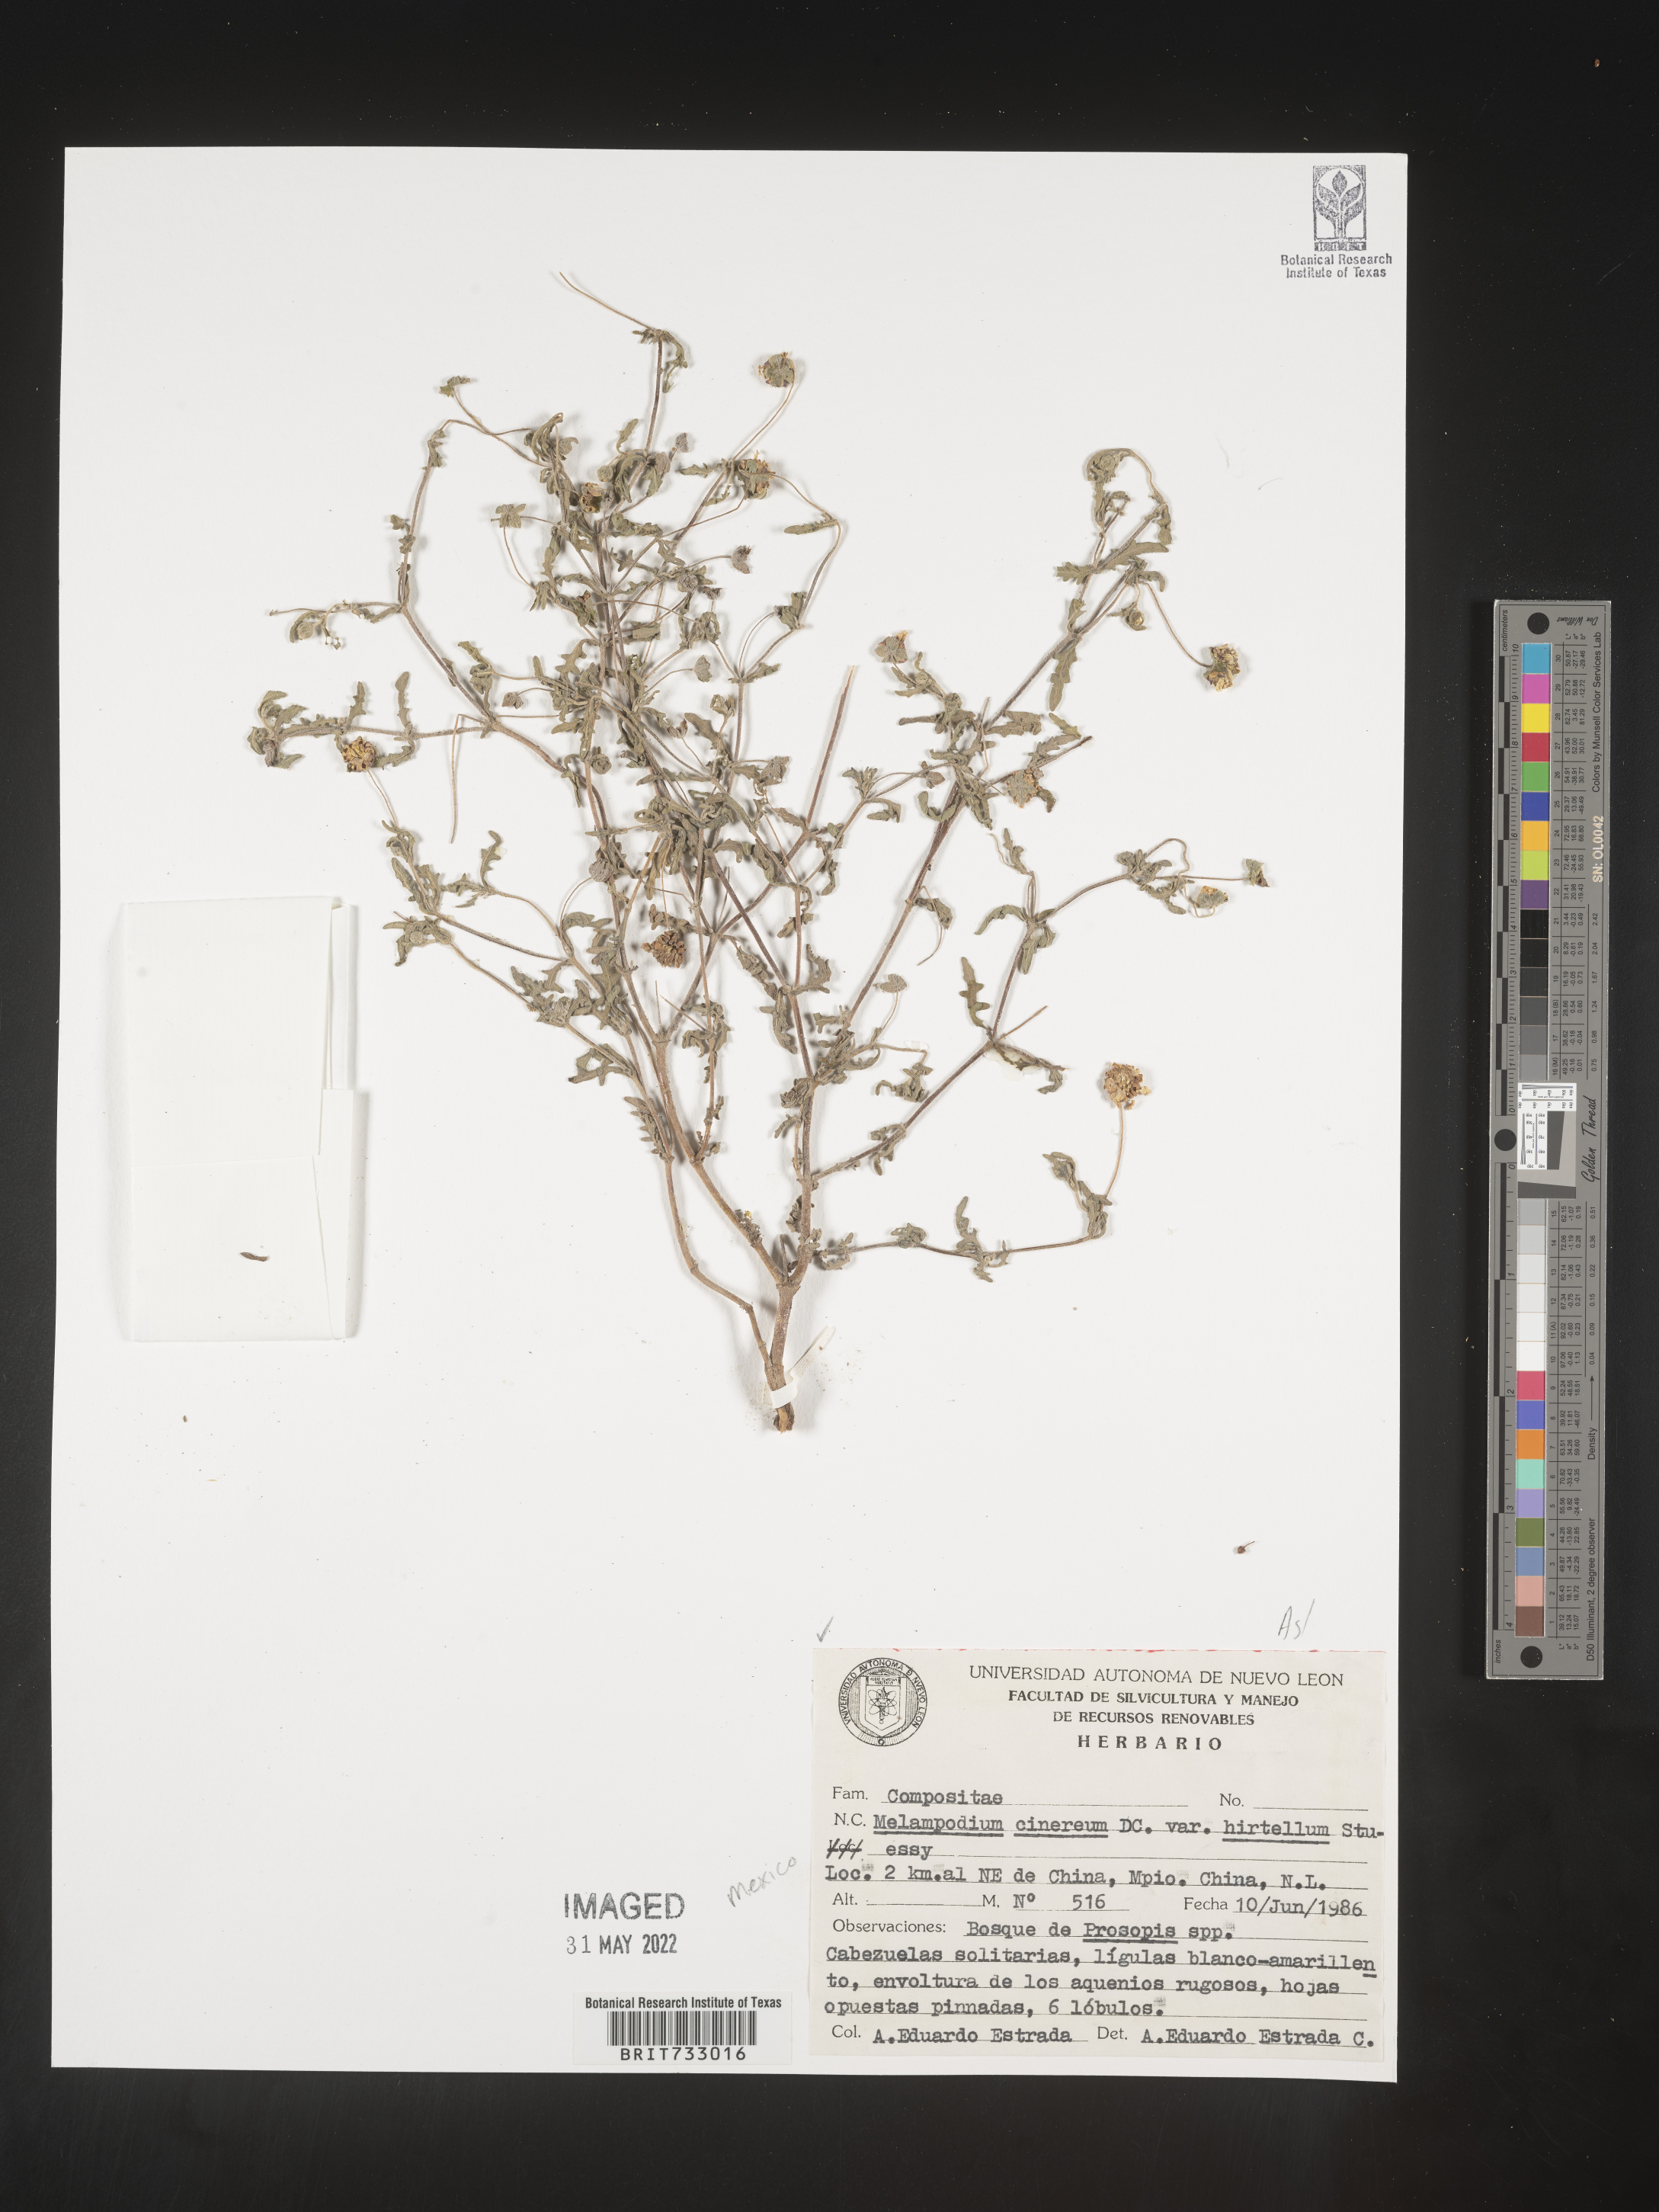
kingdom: Plantae
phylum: Tracheophyta
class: Magnoliopsida
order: Asterales
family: Asteraceae
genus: Melampodium
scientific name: Melampodium
